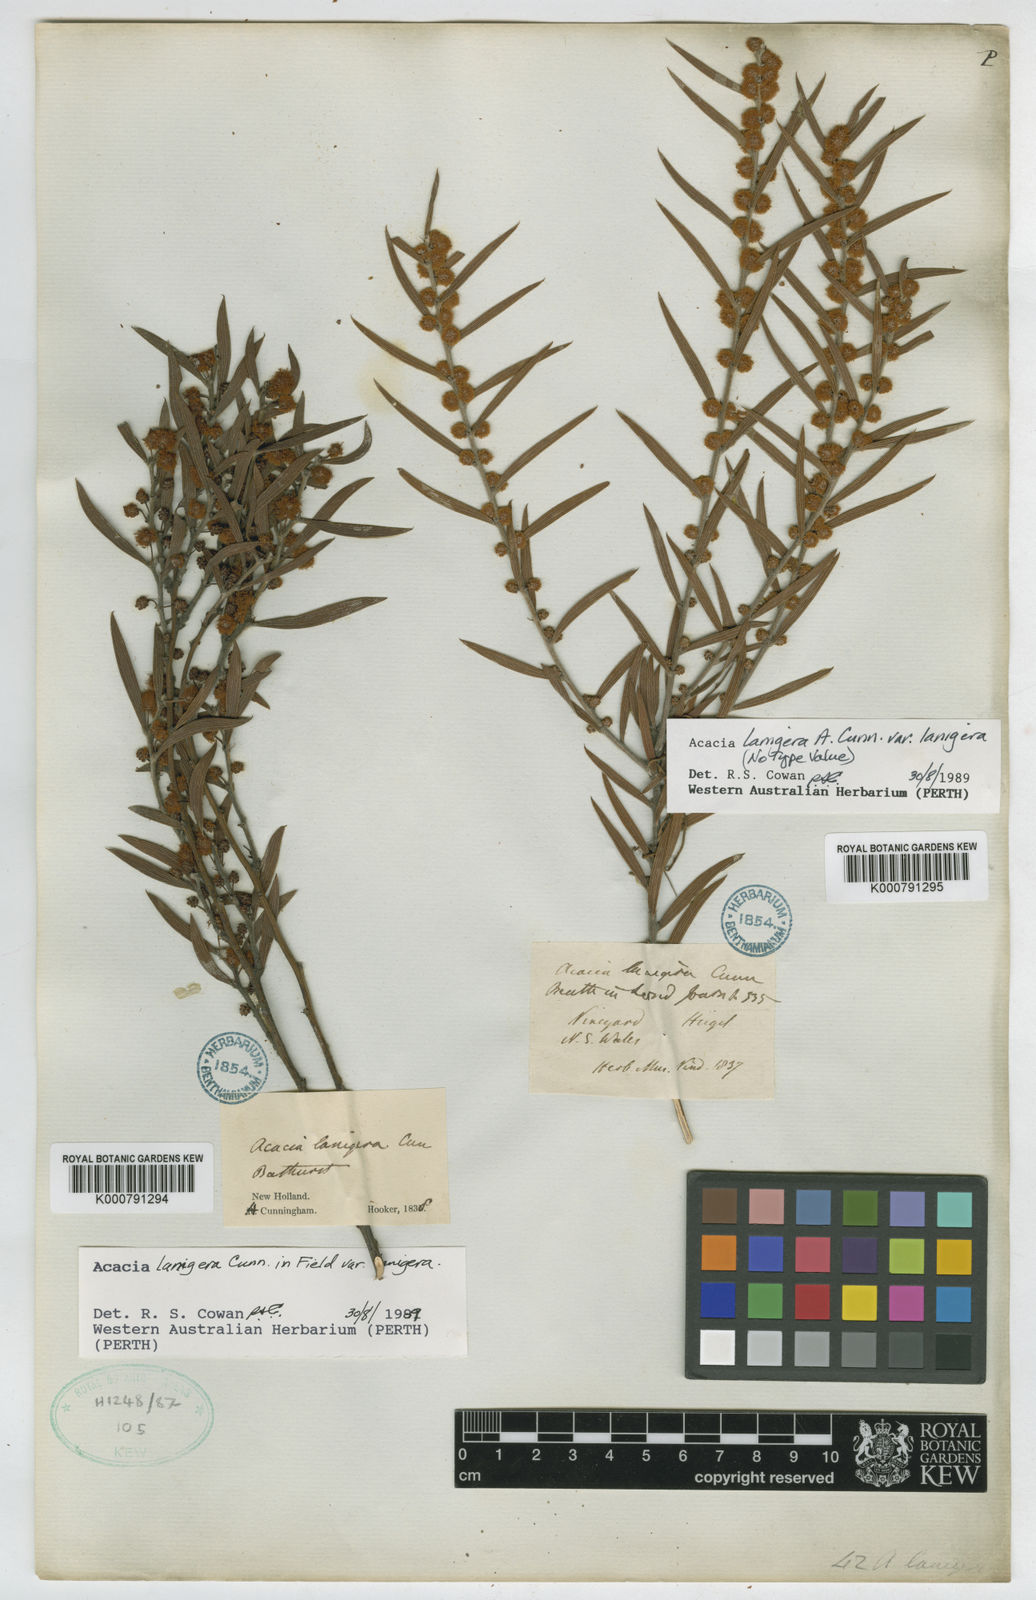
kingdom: Plantae
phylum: Tracheophyta
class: Magnoliopsida
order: Fabales
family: Fabaceae
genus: Acacia
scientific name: Acacia lanigera
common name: Hairy wattle
